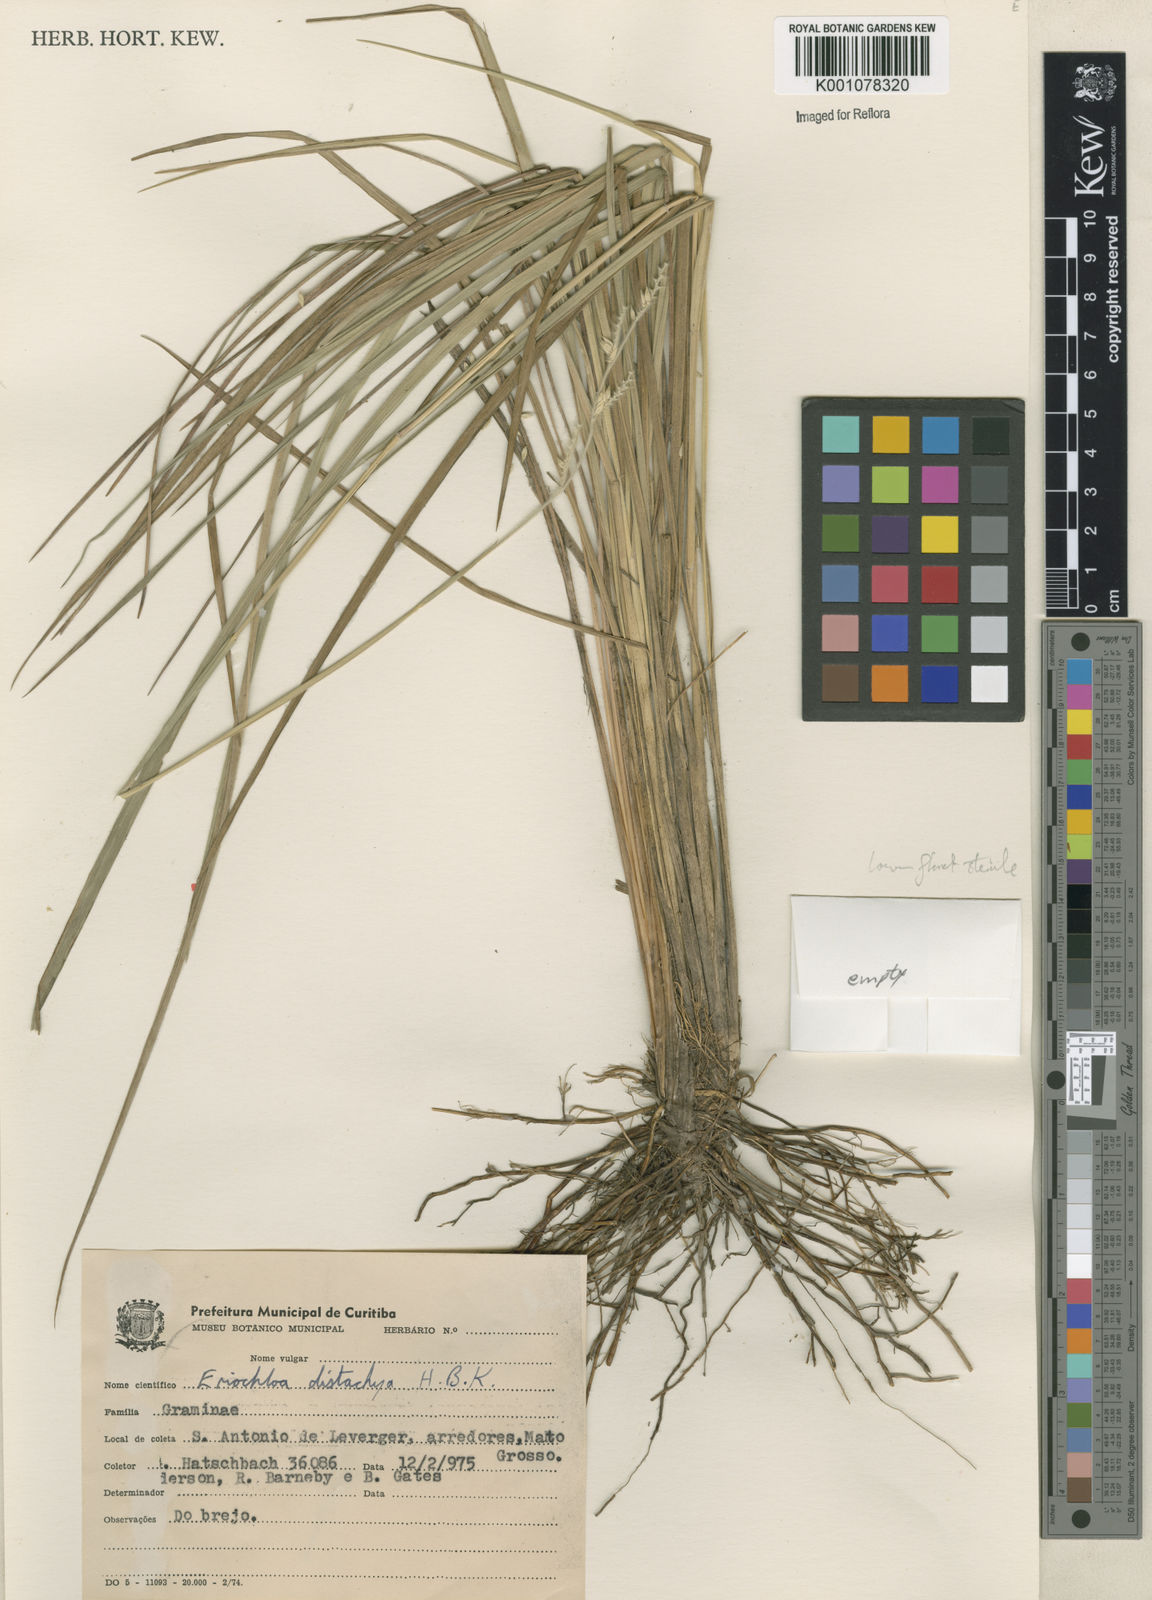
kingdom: Plantae
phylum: Tracheophyta
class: Liliopsida
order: Poales
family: Poaceae
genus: Eriochloa
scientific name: Eriochloa boliviensis
